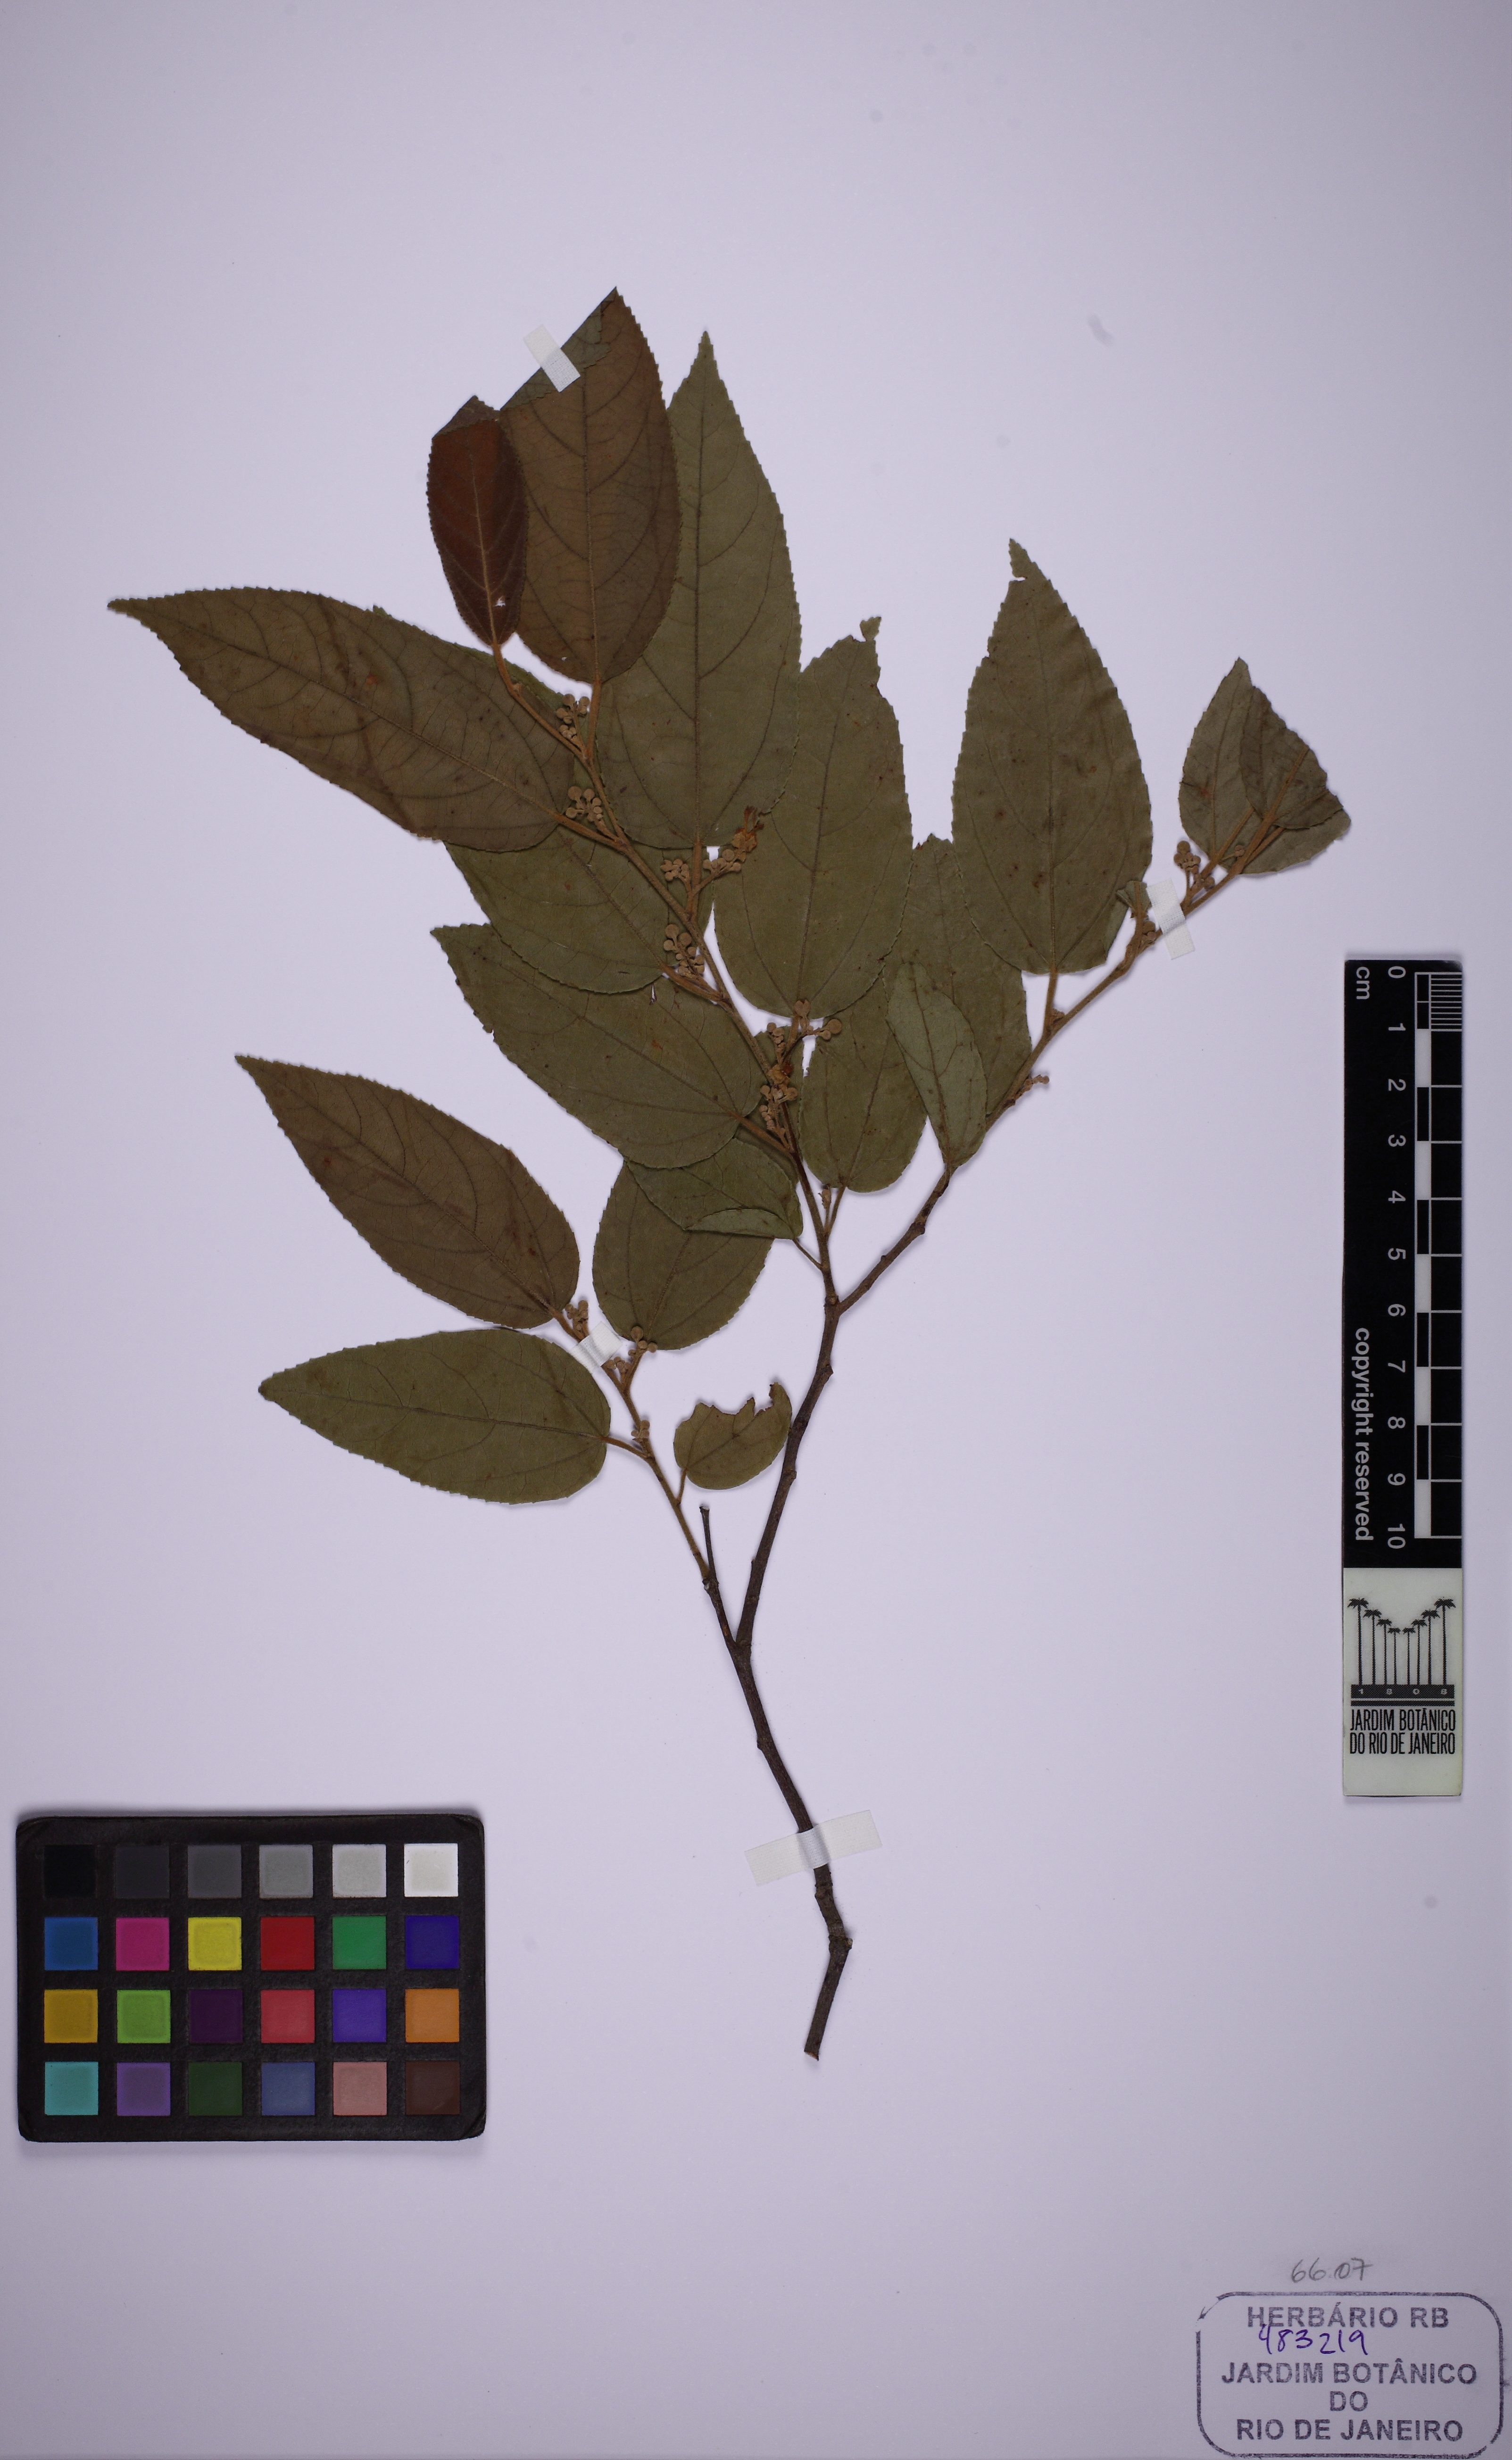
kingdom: Plantae
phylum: Tracheophyta
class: Magnoliopsida
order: Malvales
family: Malvaceae
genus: Guazuma
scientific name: Guazuma ulmifolia
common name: Bastard-cedar
